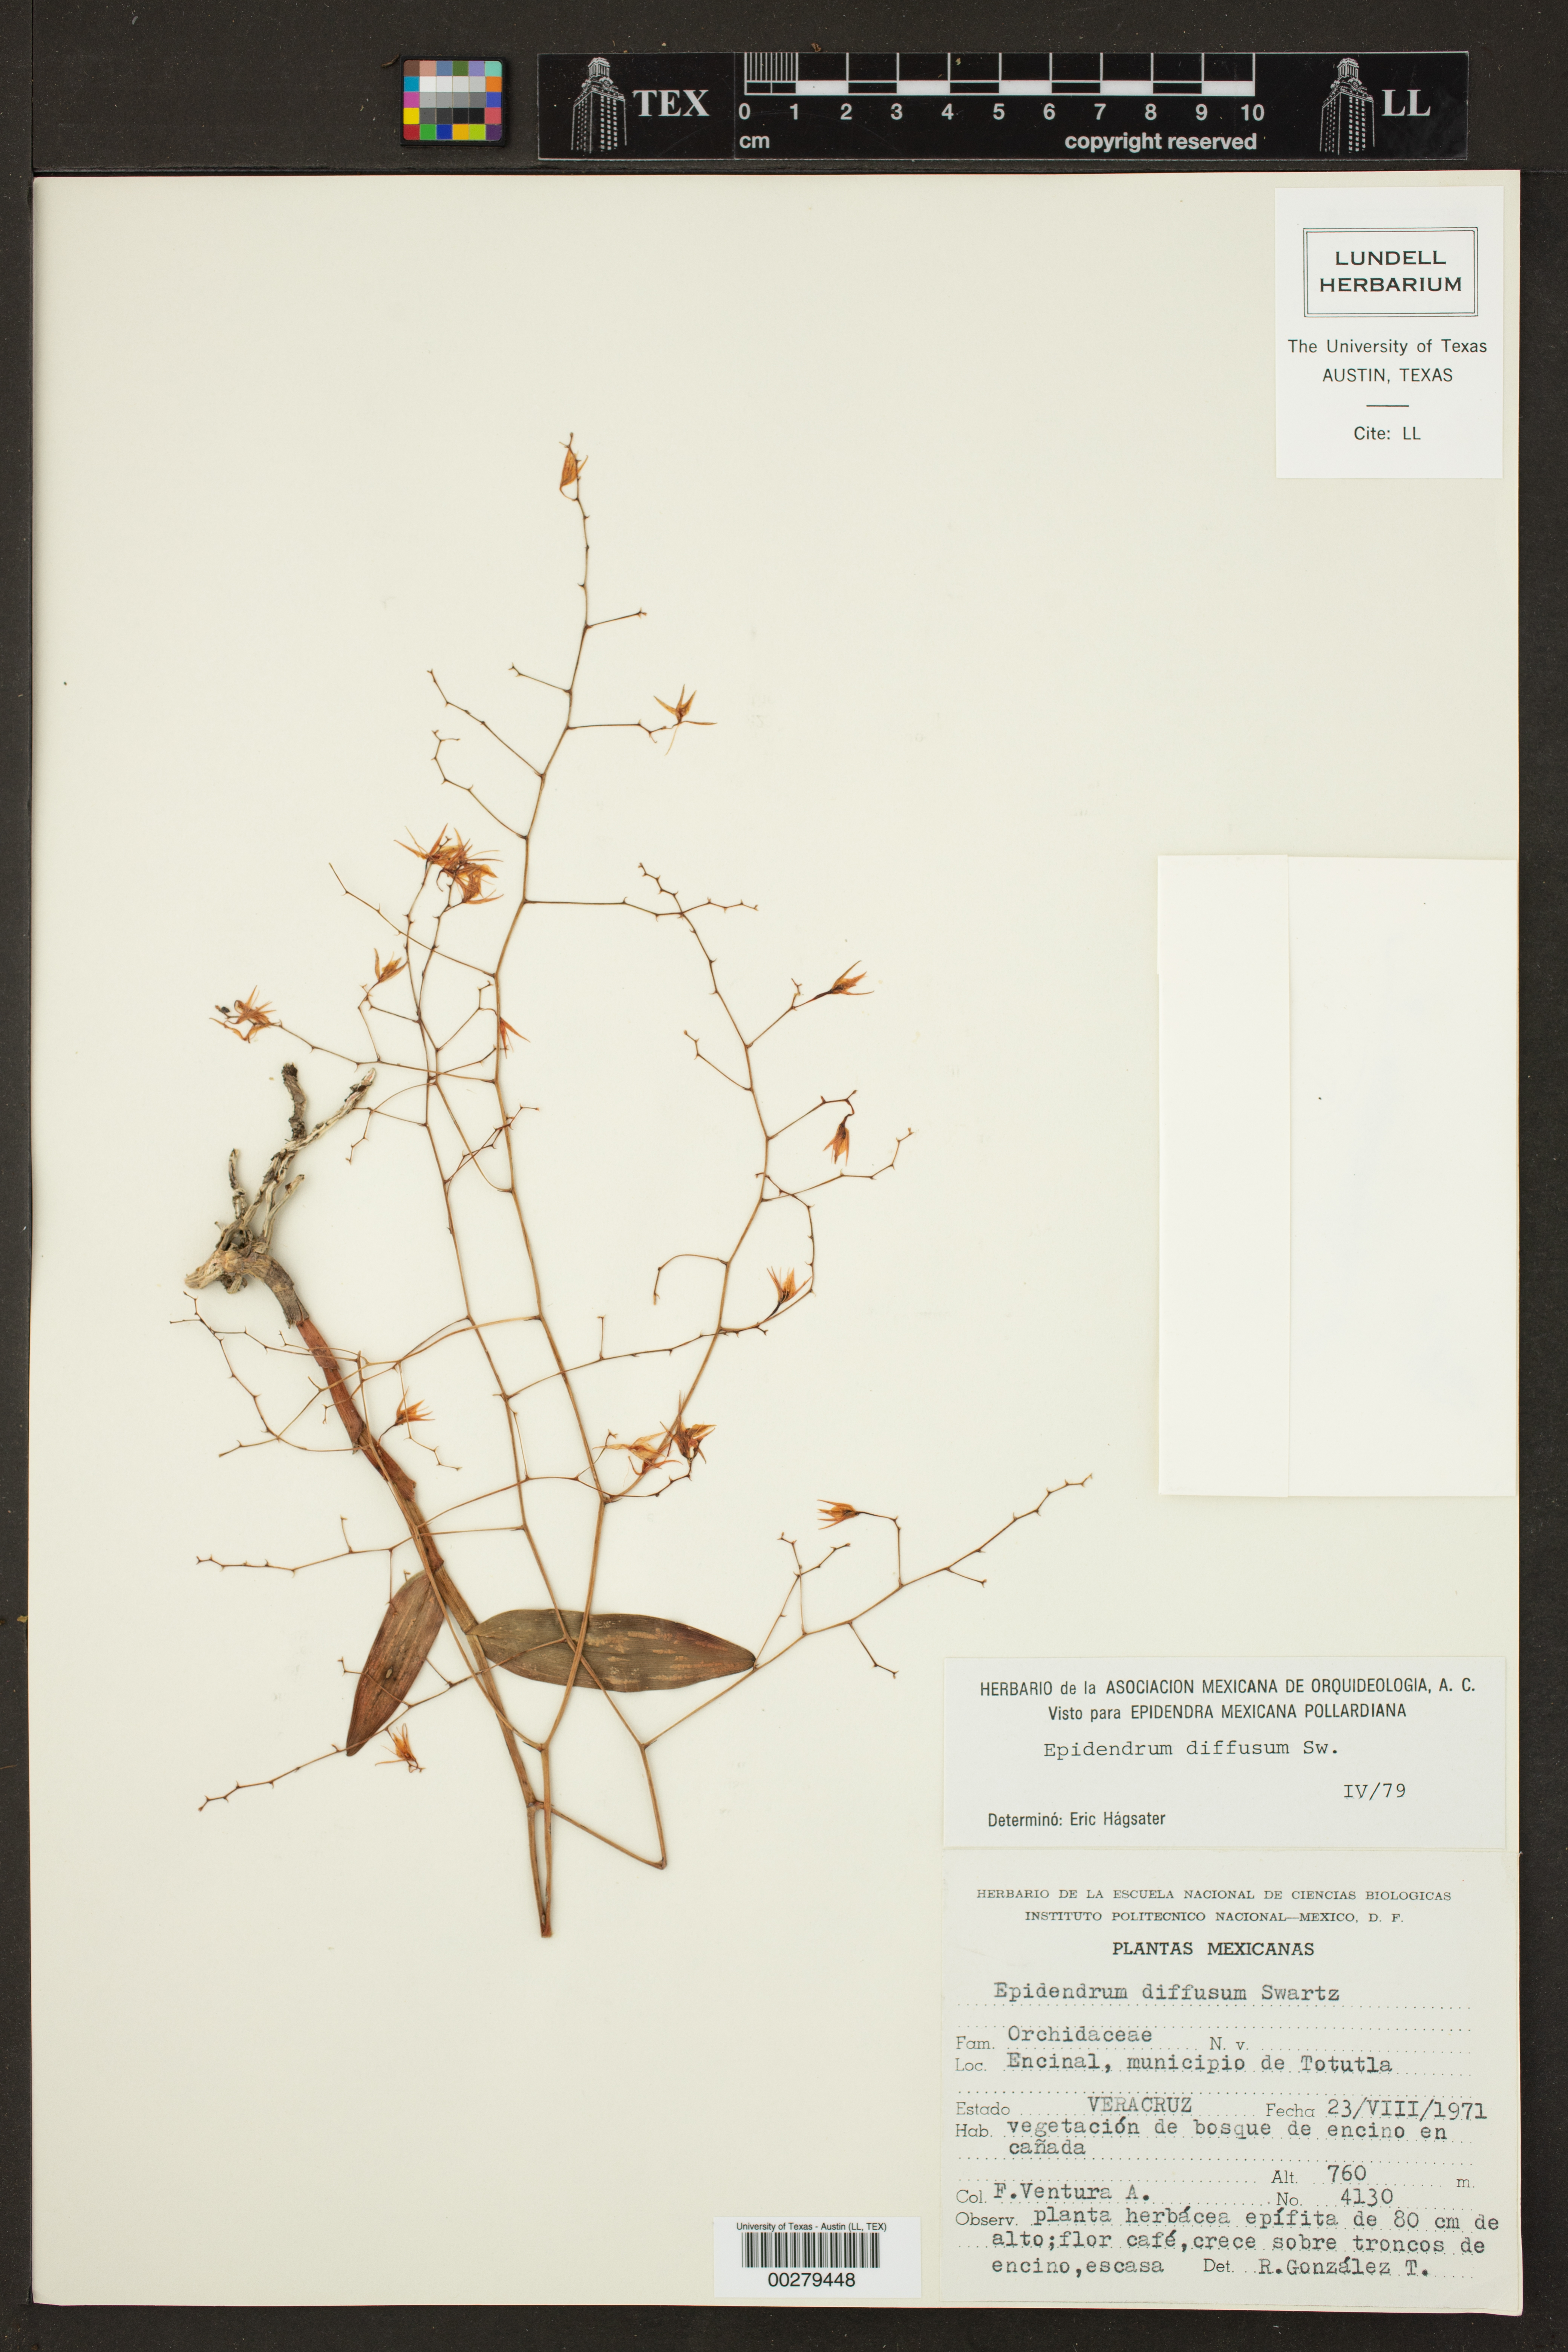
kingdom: Plantae
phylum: Tracheophyta
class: Liliopsida
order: Asparagales
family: Orchidaceae
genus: Epidendrum
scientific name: Epidendrum diffusum
